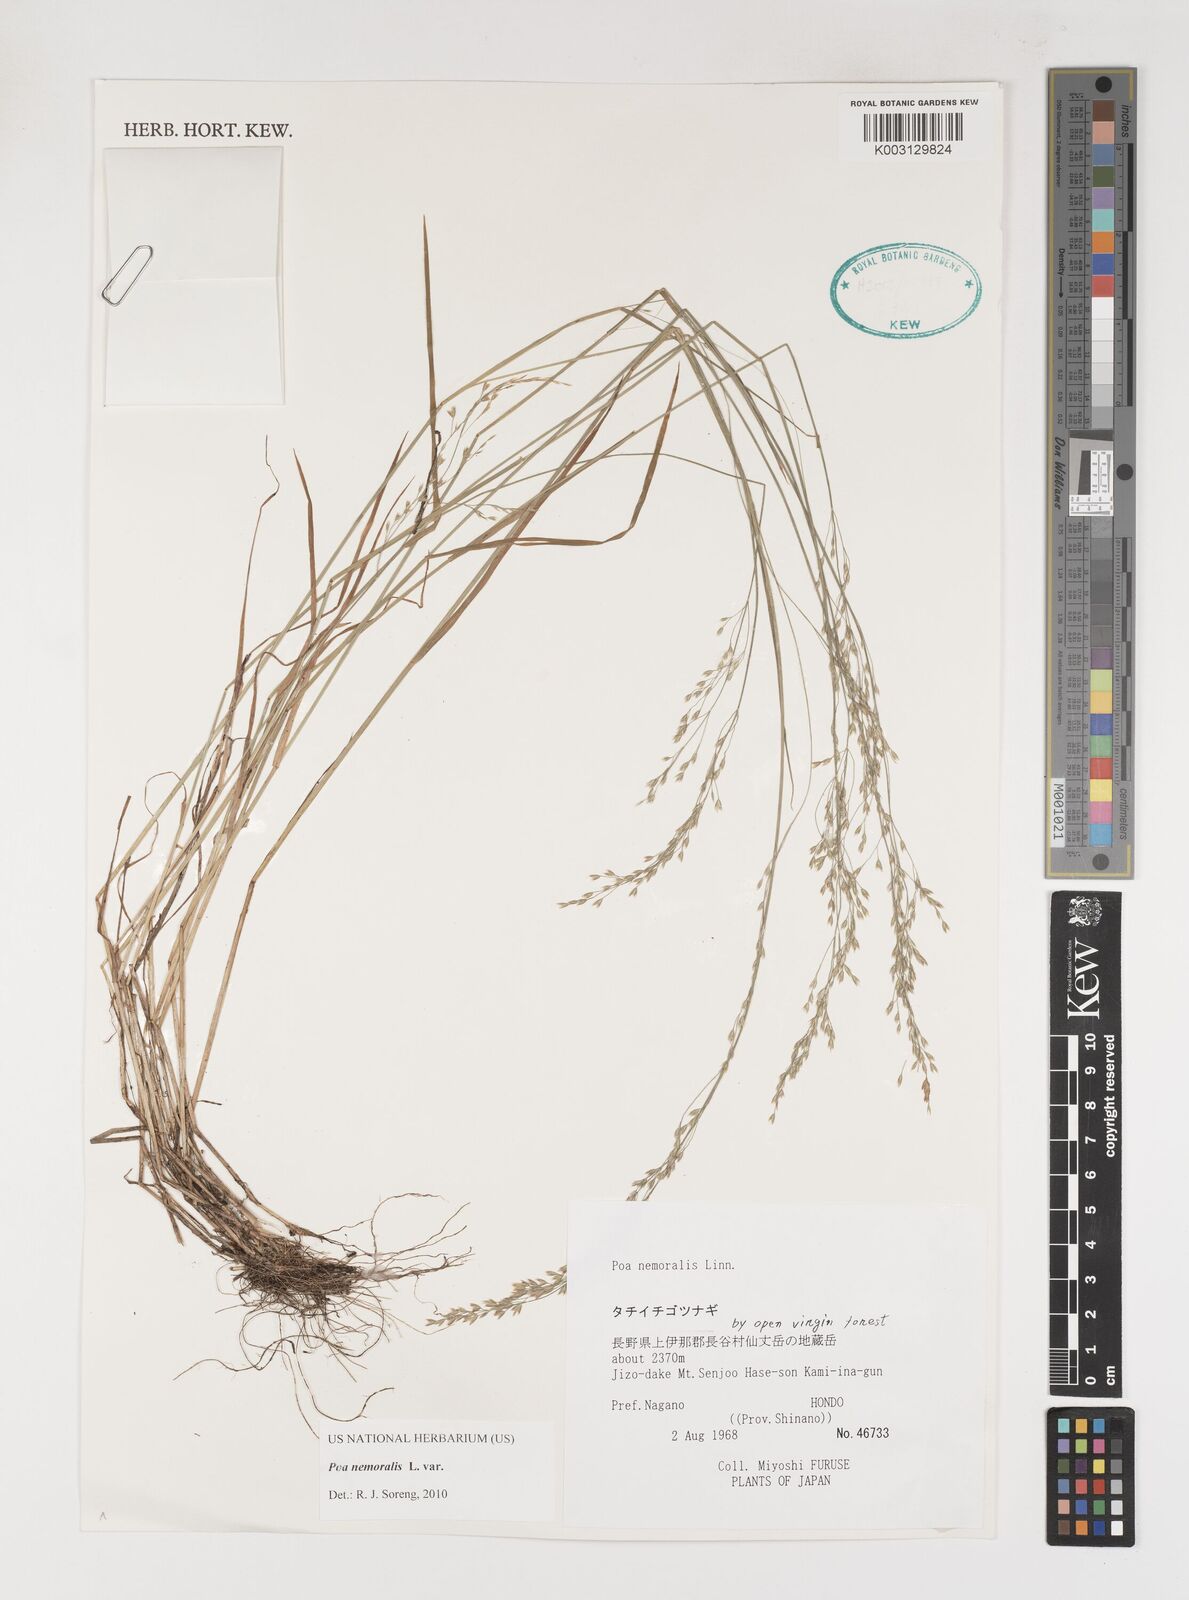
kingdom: Plantae
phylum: Tracheophyta
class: Liliopsida
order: Poales
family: Poaceae
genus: Poa
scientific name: Poa nemoralis
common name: Wood bluegrass
